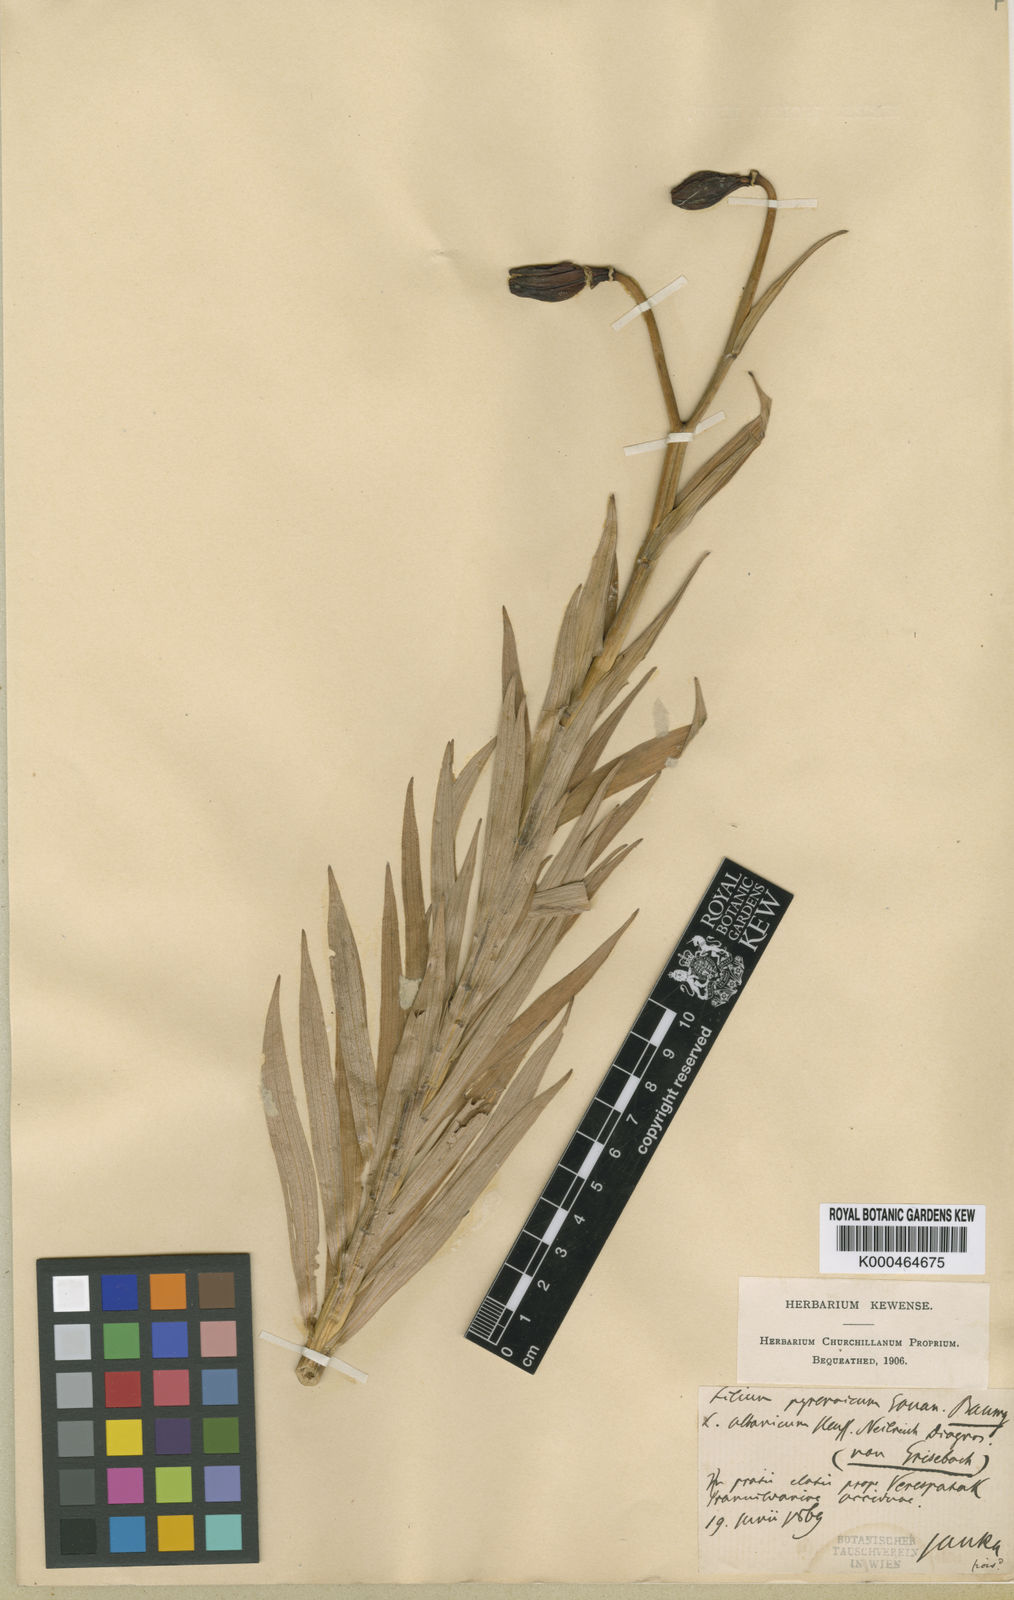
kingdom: Plantae
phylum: Tracheophyta
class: Liliopsida
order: Liliales
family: Liliaceae
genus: Lilium
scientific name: Lilium jankae
